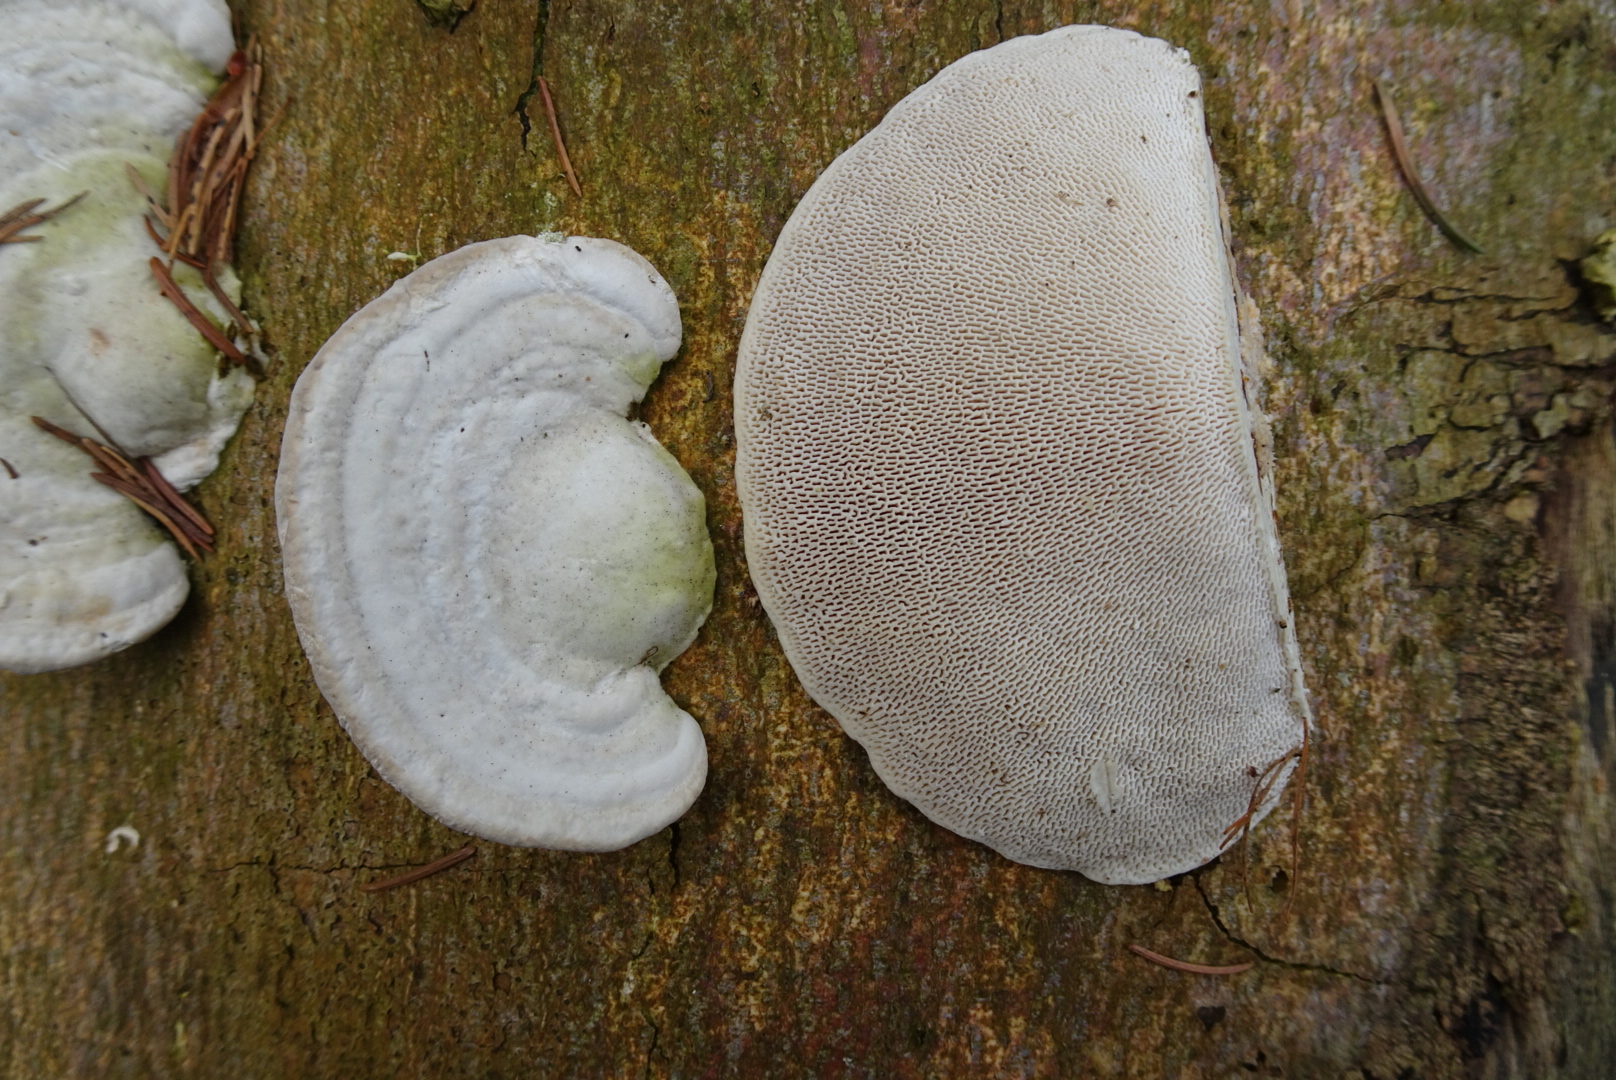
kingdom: Fungi
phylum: Basidiomycota
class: Agaricomycetes
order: Polyporales
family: Polyporaceae
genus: Trametes
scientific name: Trametes gibbosa
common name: puklet læderporesvamp
